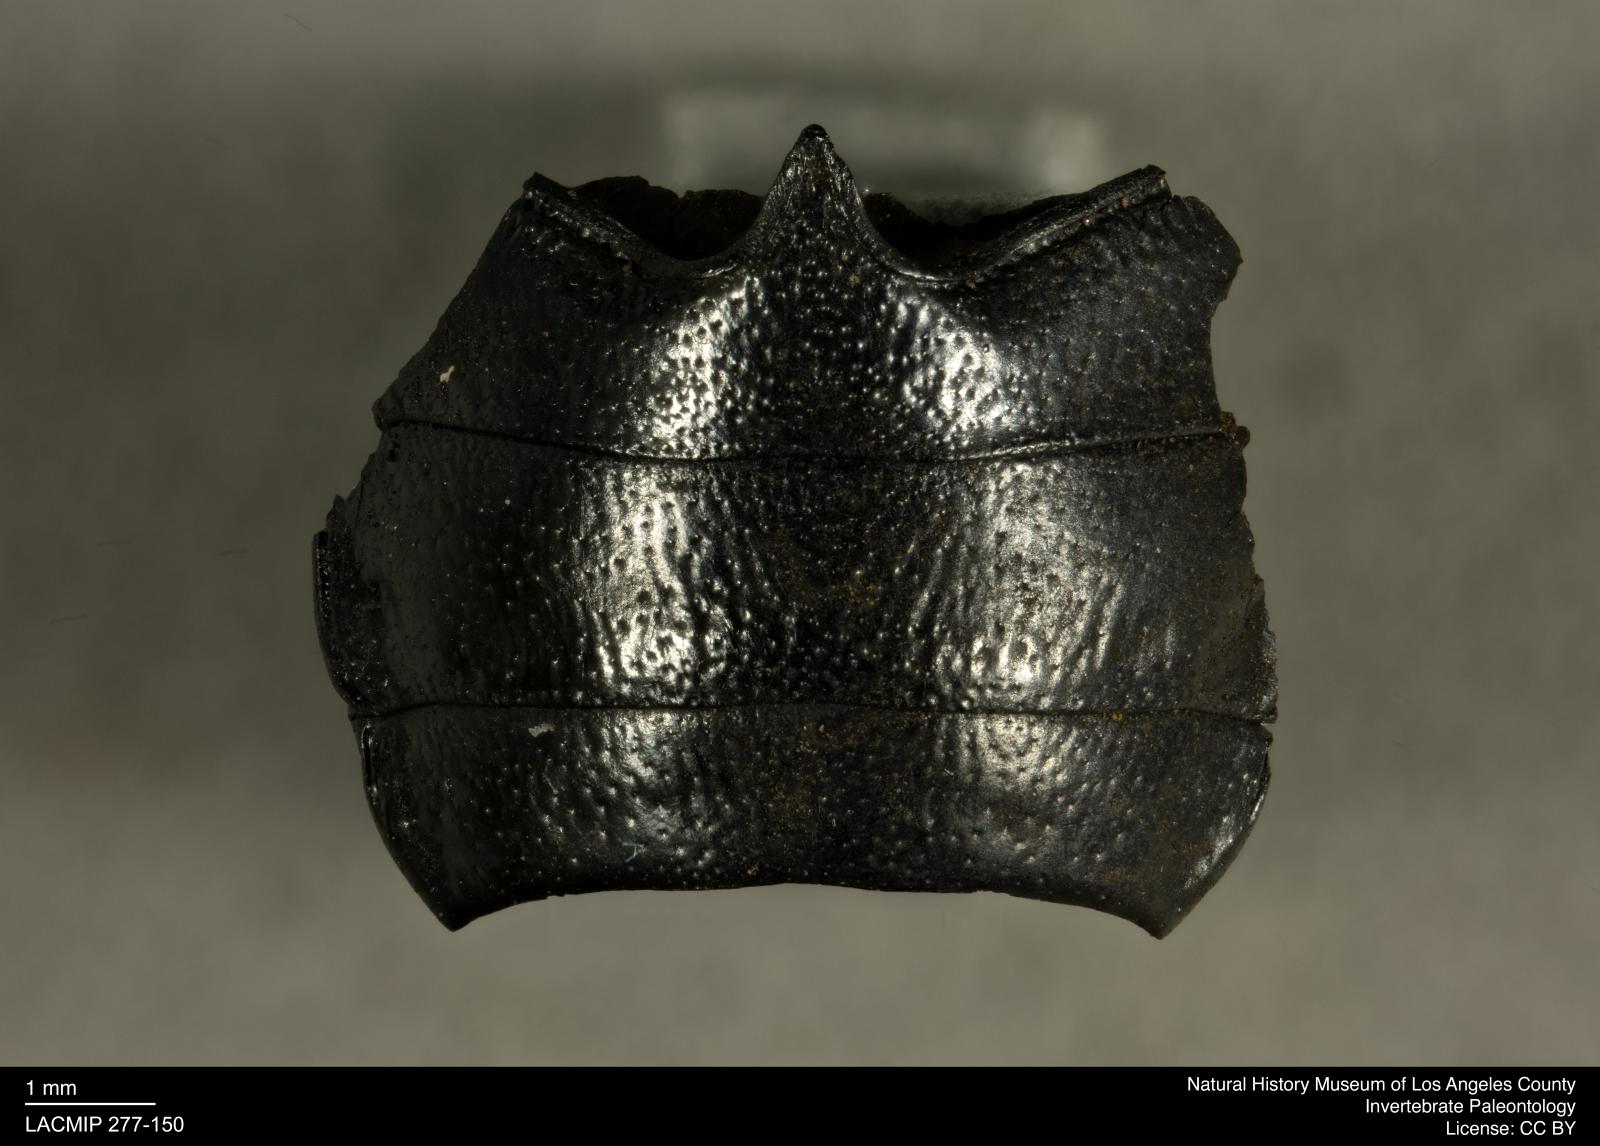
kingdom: Animalia
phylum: Arthropoda
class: Insecta
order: Coleoptera
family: Tenebrionidae
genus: Coniontis
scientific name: Coniontis abdominalis
